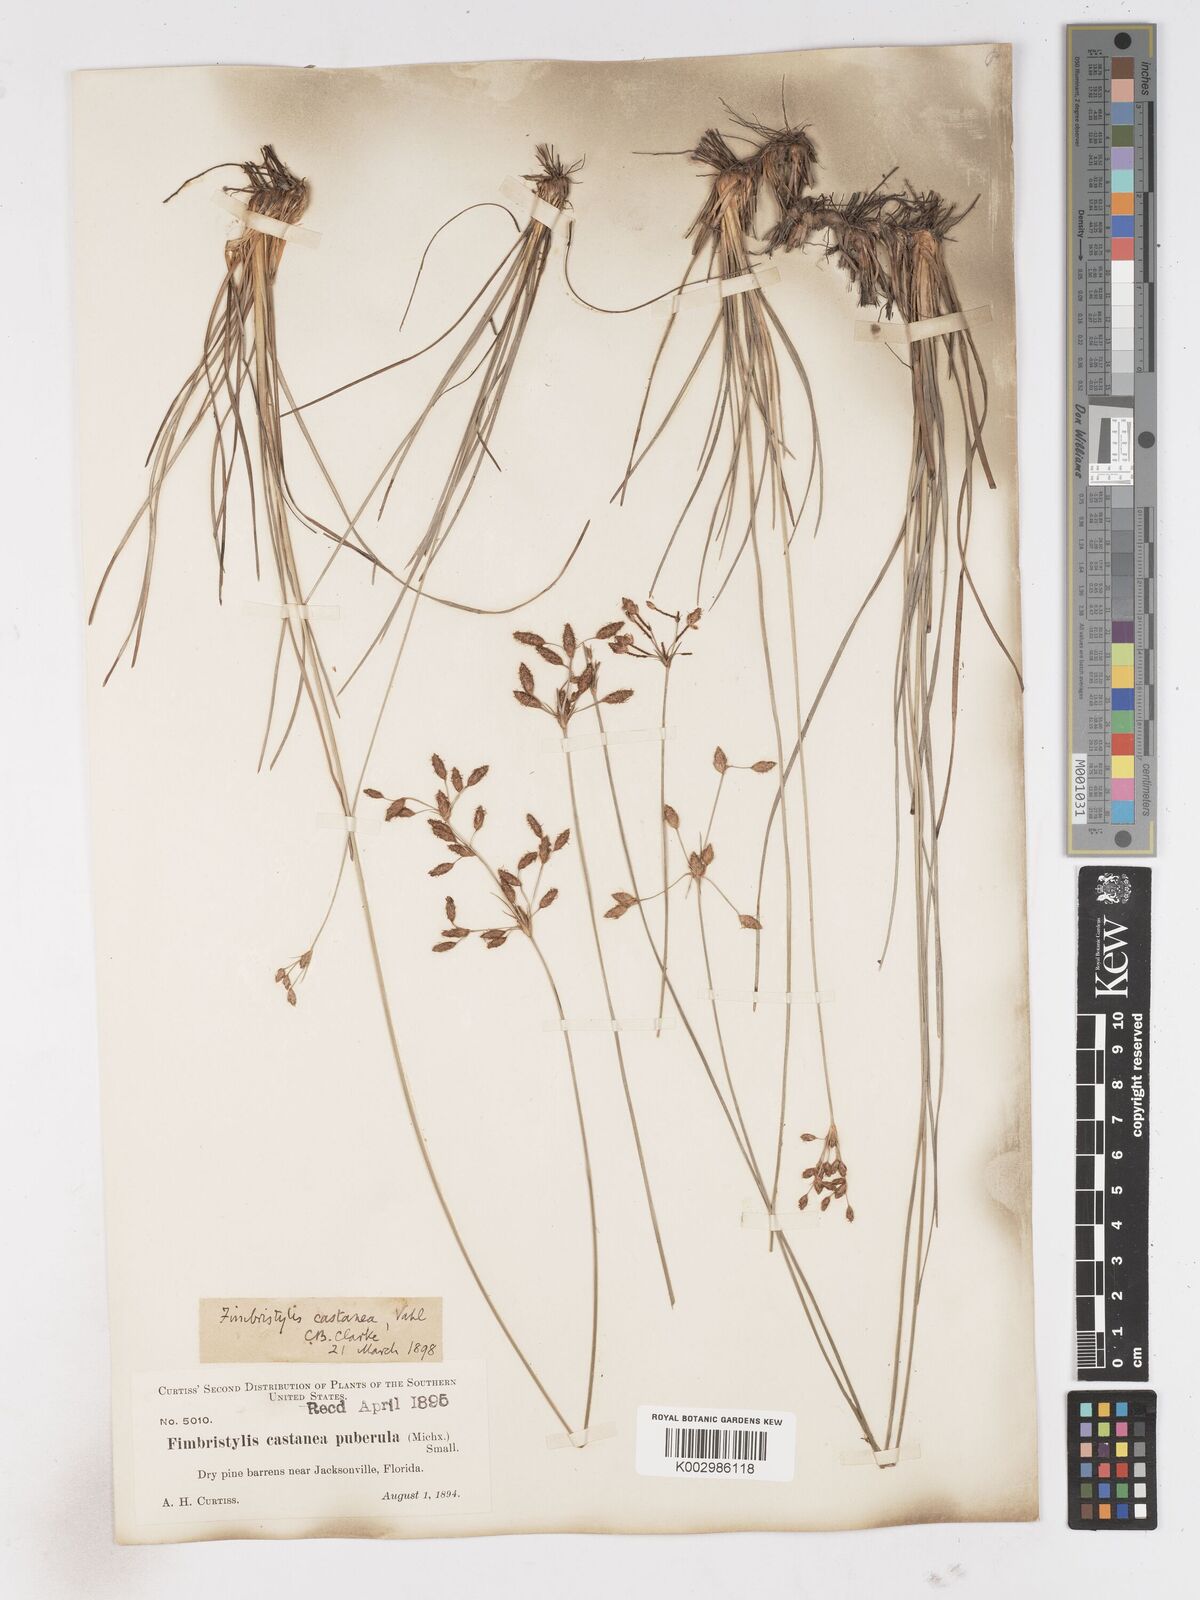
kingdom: Plantae
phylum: Tracheophyta
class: Liliopsida
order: Poales
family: Cyperaceae
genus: Fimbristylis
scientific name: Fimbristylis spadicea
